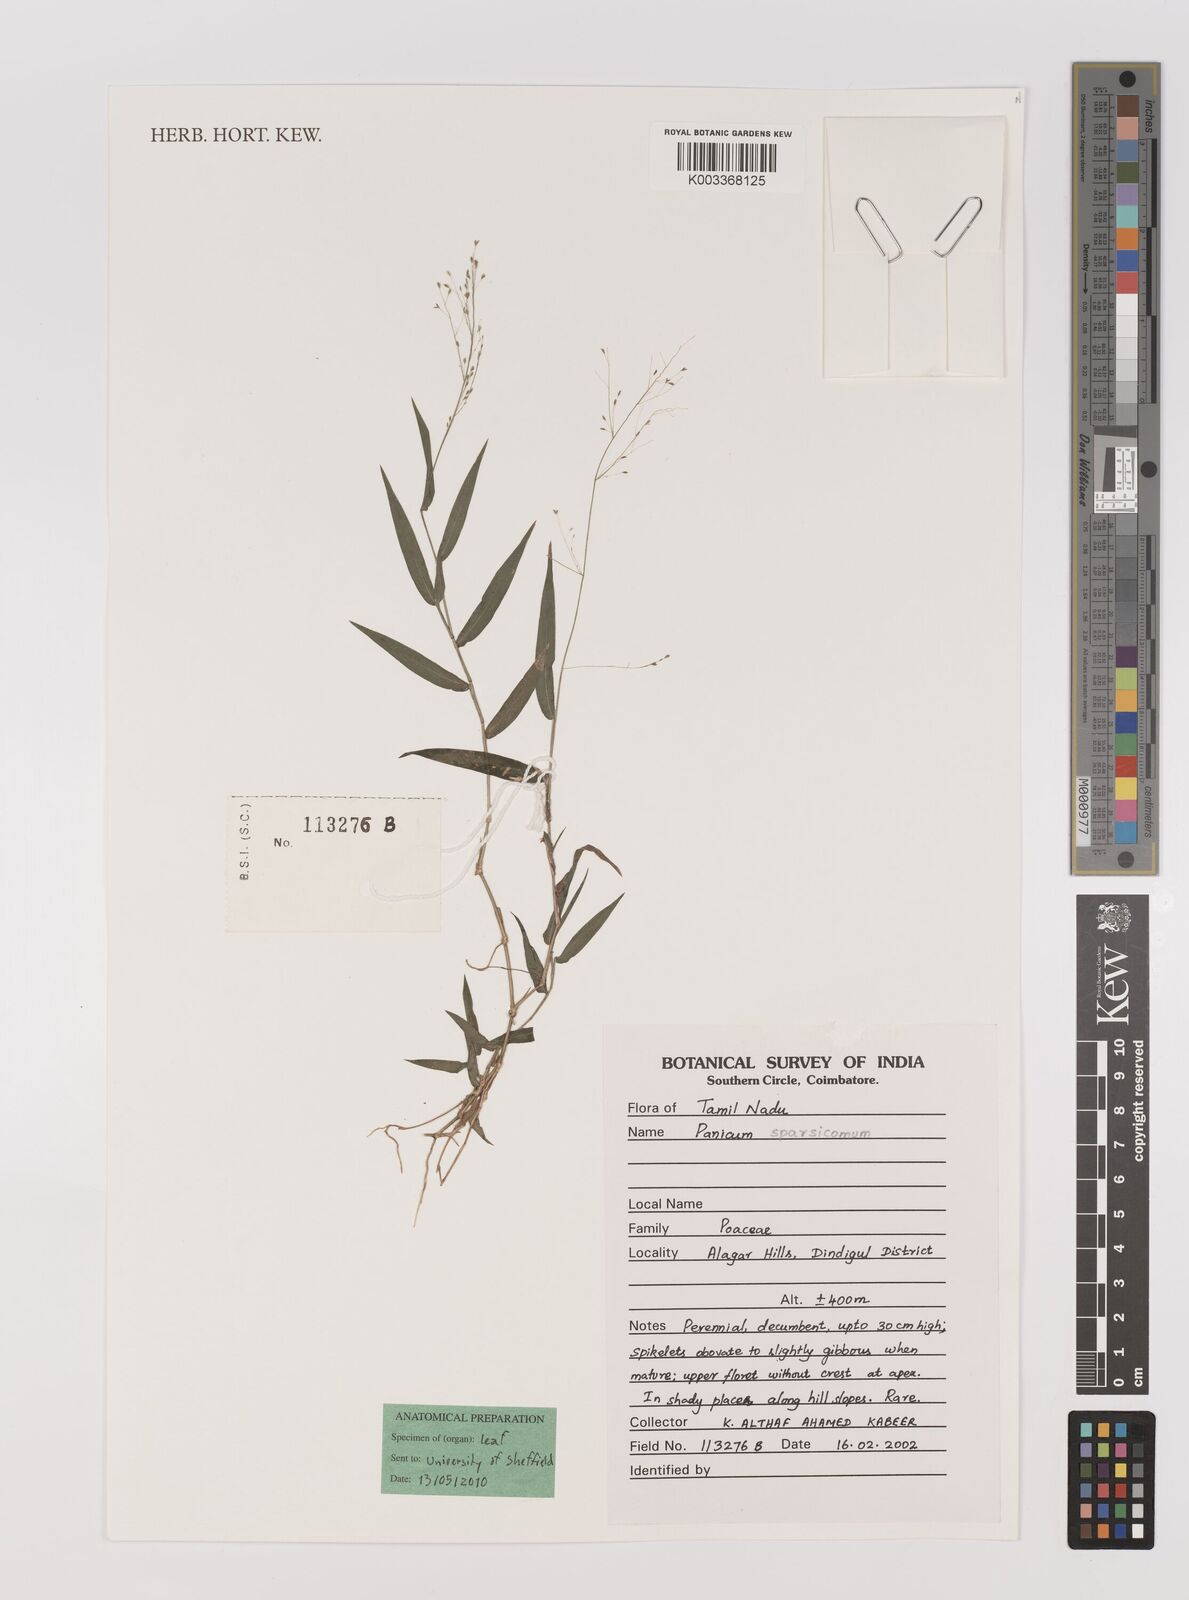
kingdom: Plantae
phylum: Tracheophyta
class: Liliopsida
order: Poales
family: Poaceae
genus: Panicum
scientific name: Panicum sparsicomum
